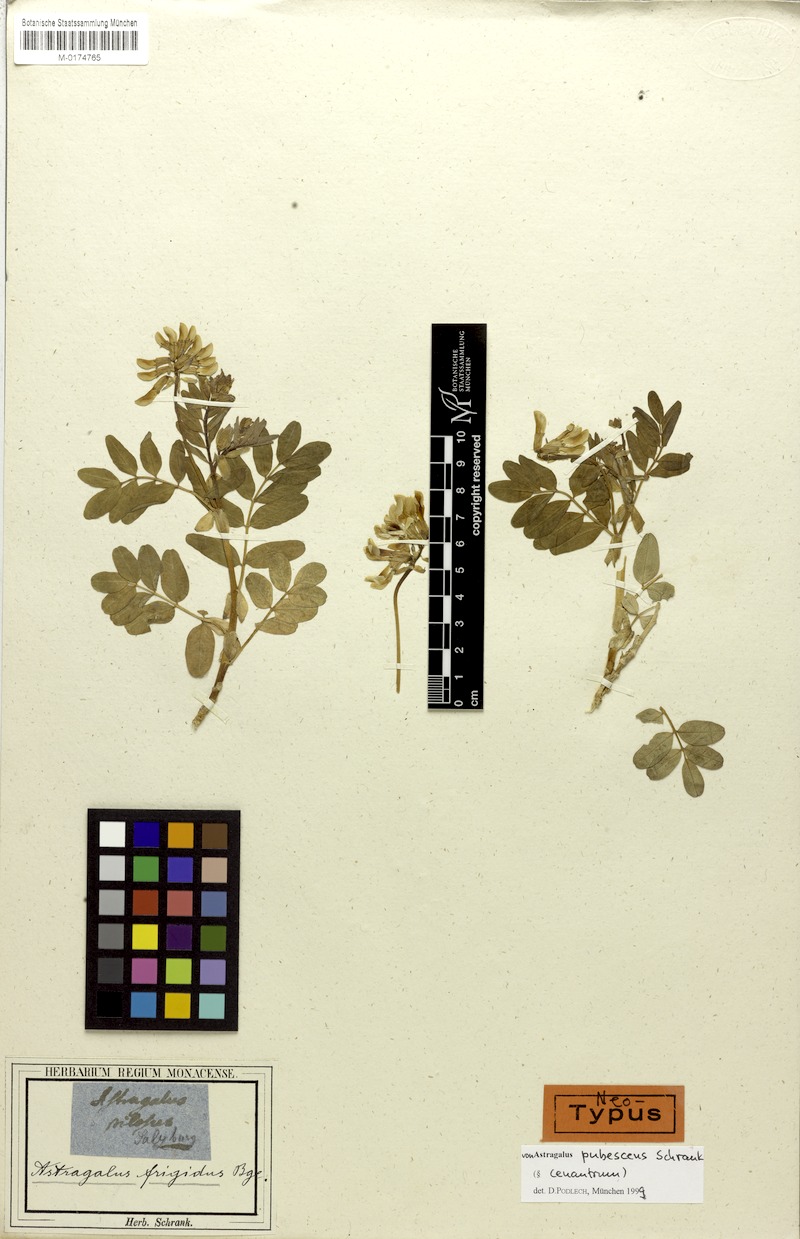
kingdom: Plantae
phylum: Tracheophyta
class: Magnoliopsida
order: Fabales
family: Fabaceae
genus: Astragalus
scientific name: Astragalus frigidus
